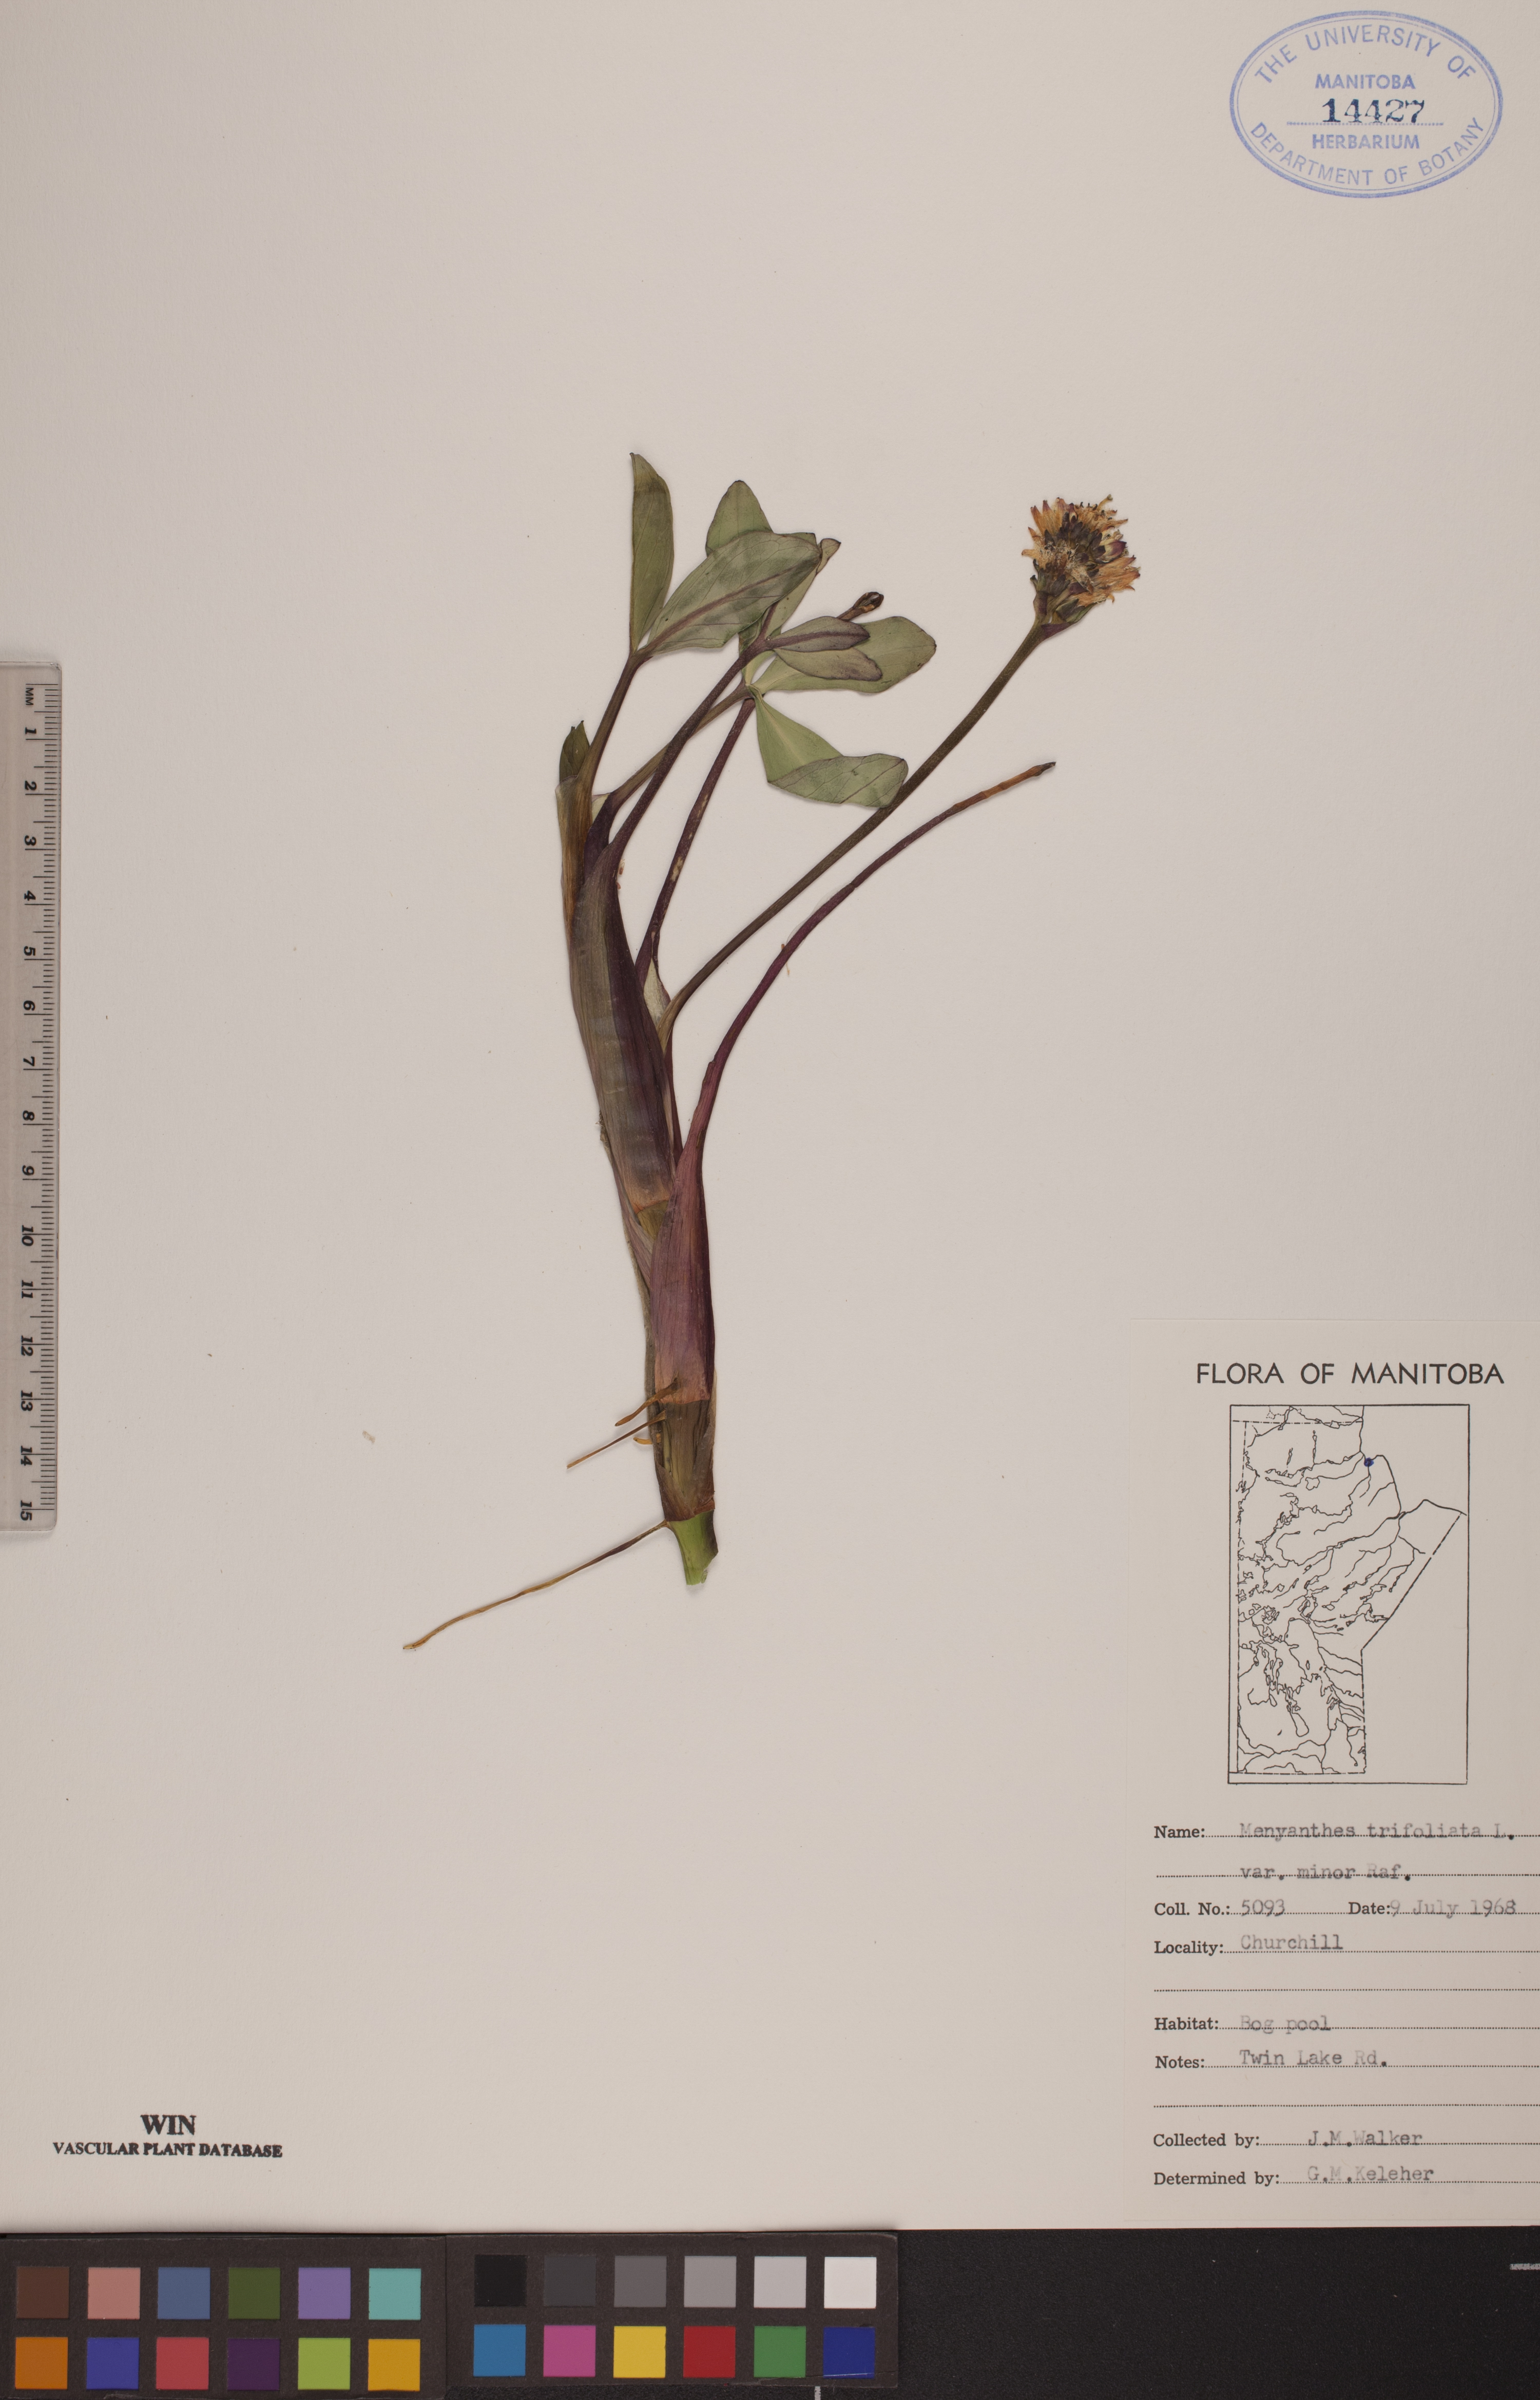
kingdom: Plantae
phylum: Tracheophyta
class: Magnoliopsida
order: Asterales
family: Menyanthaceae
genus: Menyanthes
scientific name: Menyanthes trifoliata
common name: Bogbean
